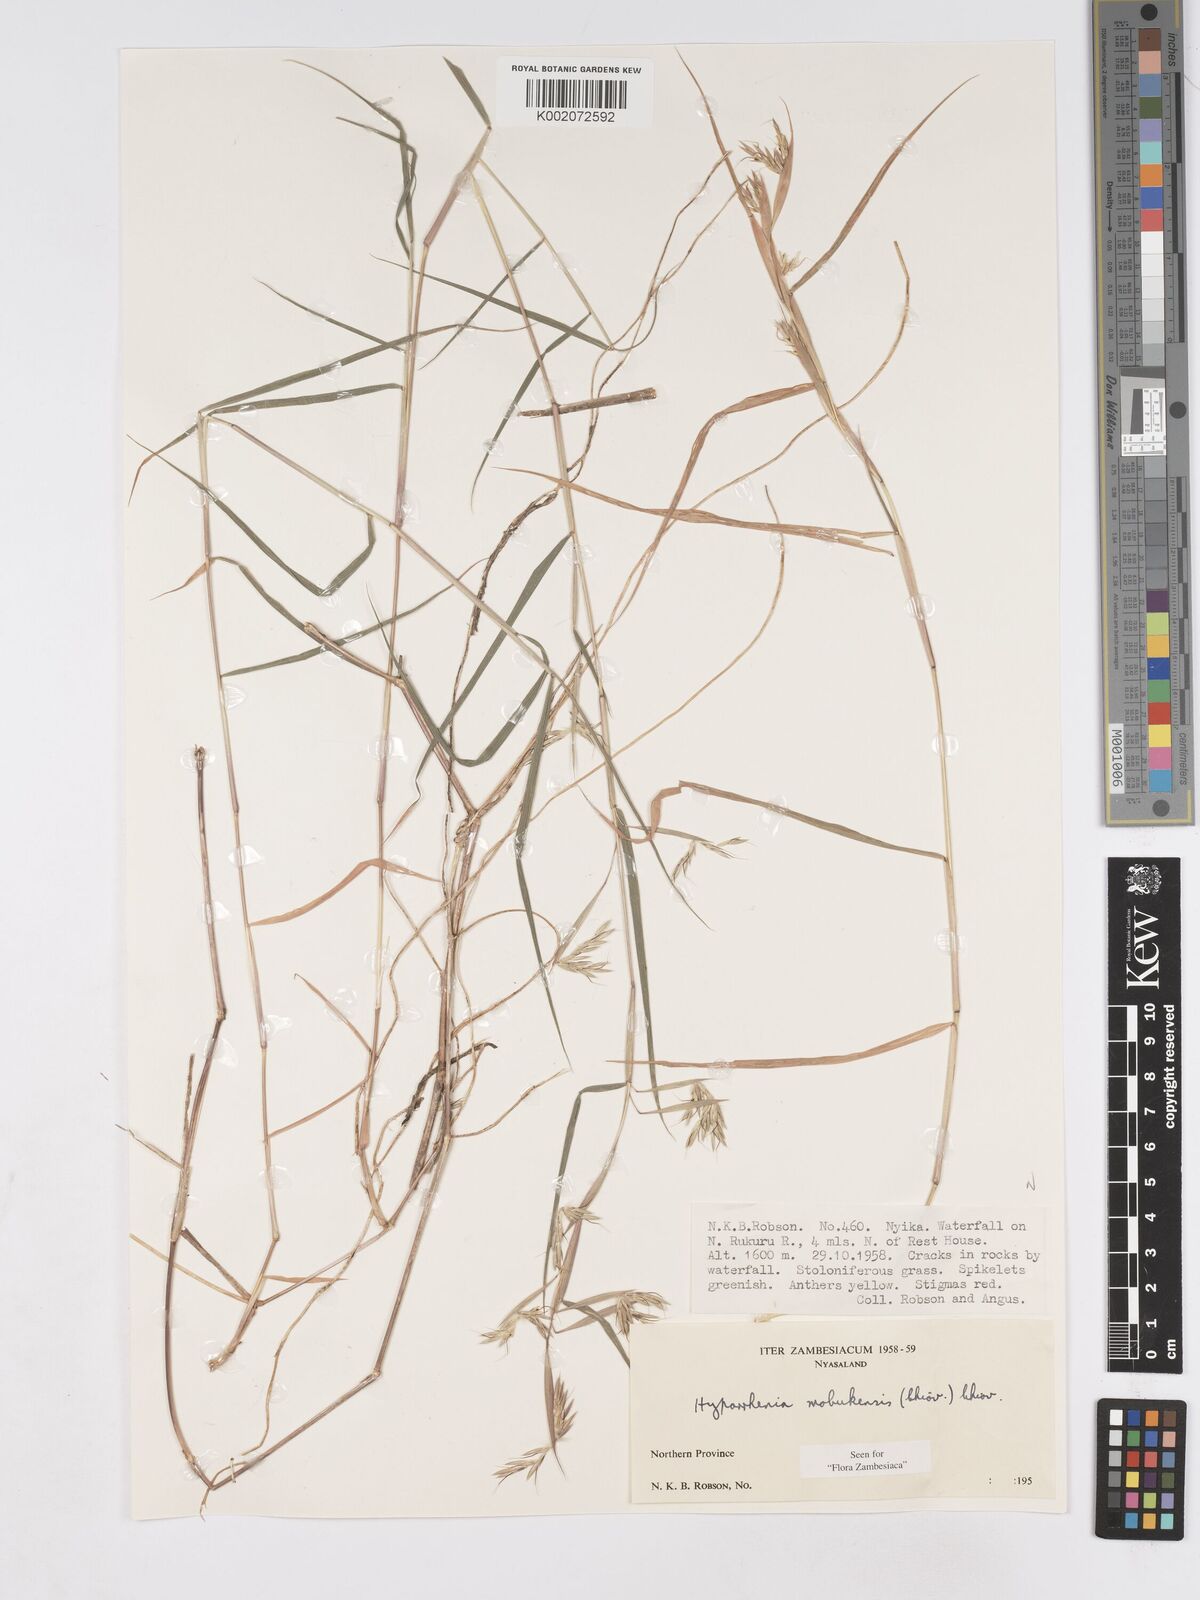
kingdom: Plantae
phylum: Tracheophyta
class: Liliopsida
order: Poales
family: Poaceae
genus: Hyparrhenia
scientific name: Hyparrhenia mobukensis
